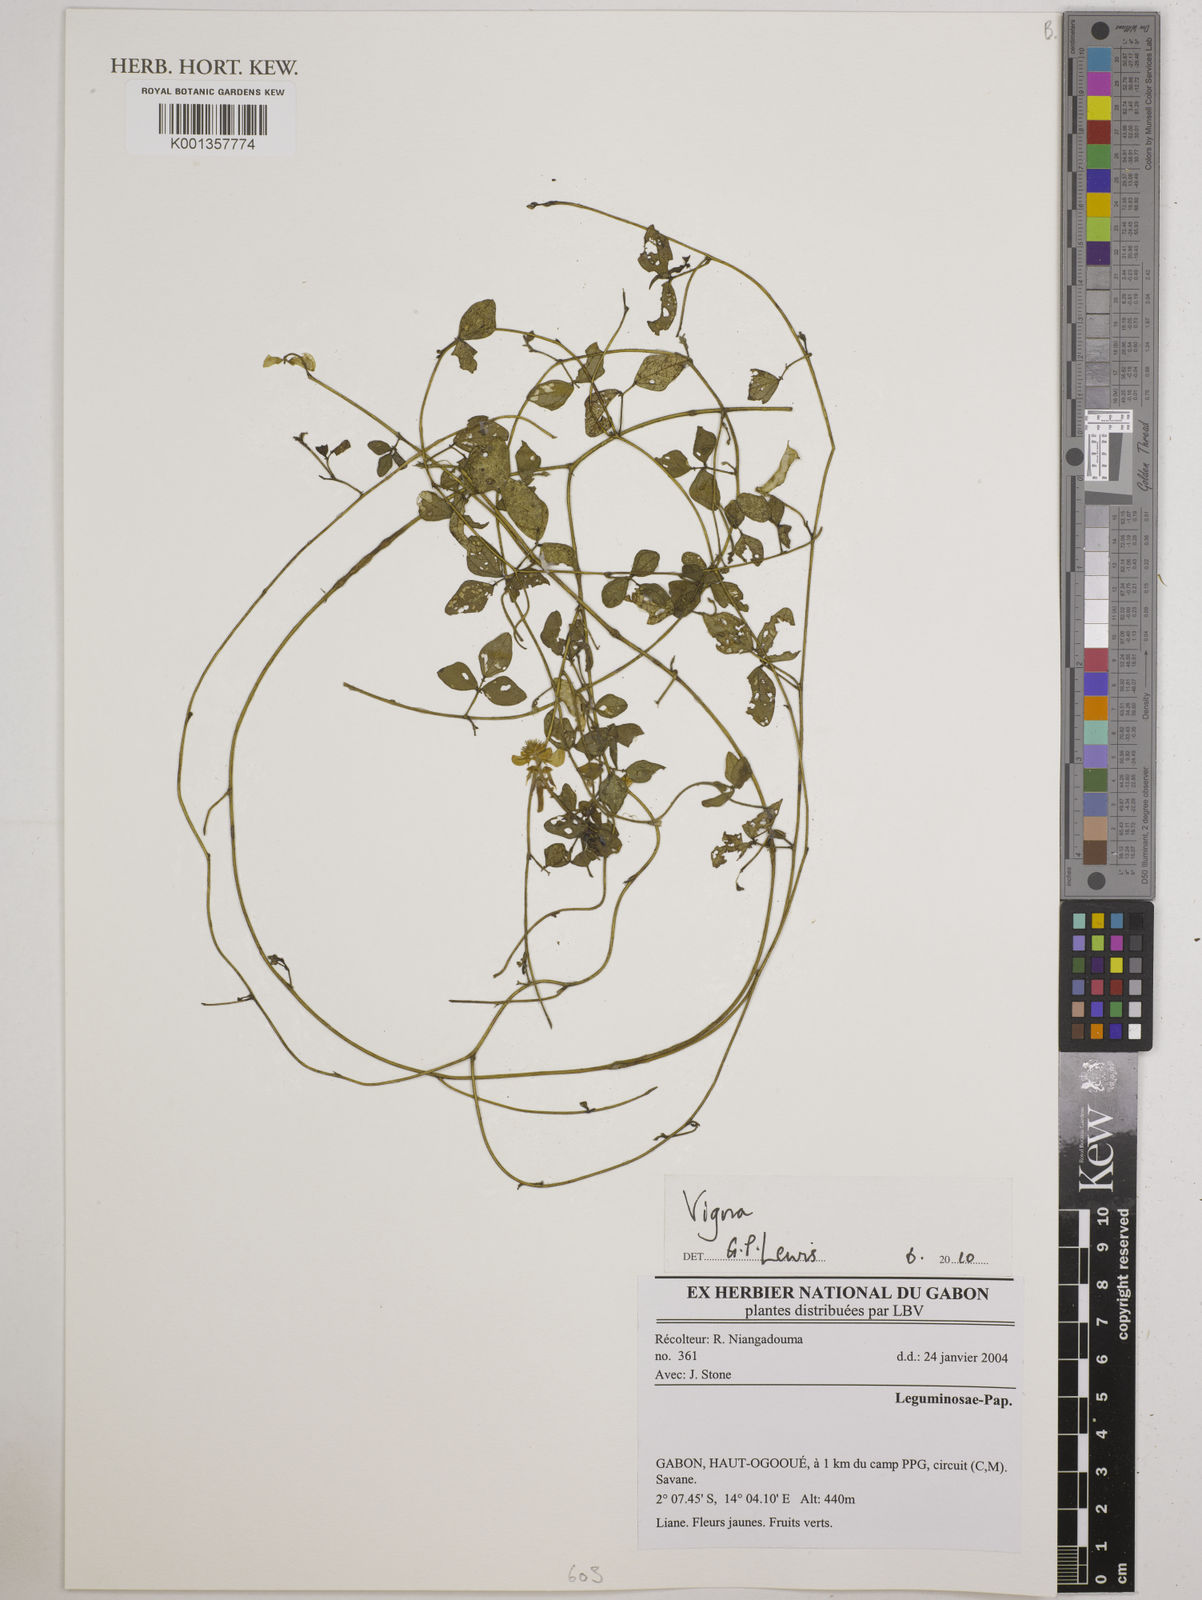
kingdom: Plantae
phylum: Tracheophyta
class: Magnoliopsida
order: Fabales
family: Fabaceae
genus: Vigna
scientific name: Vigna
